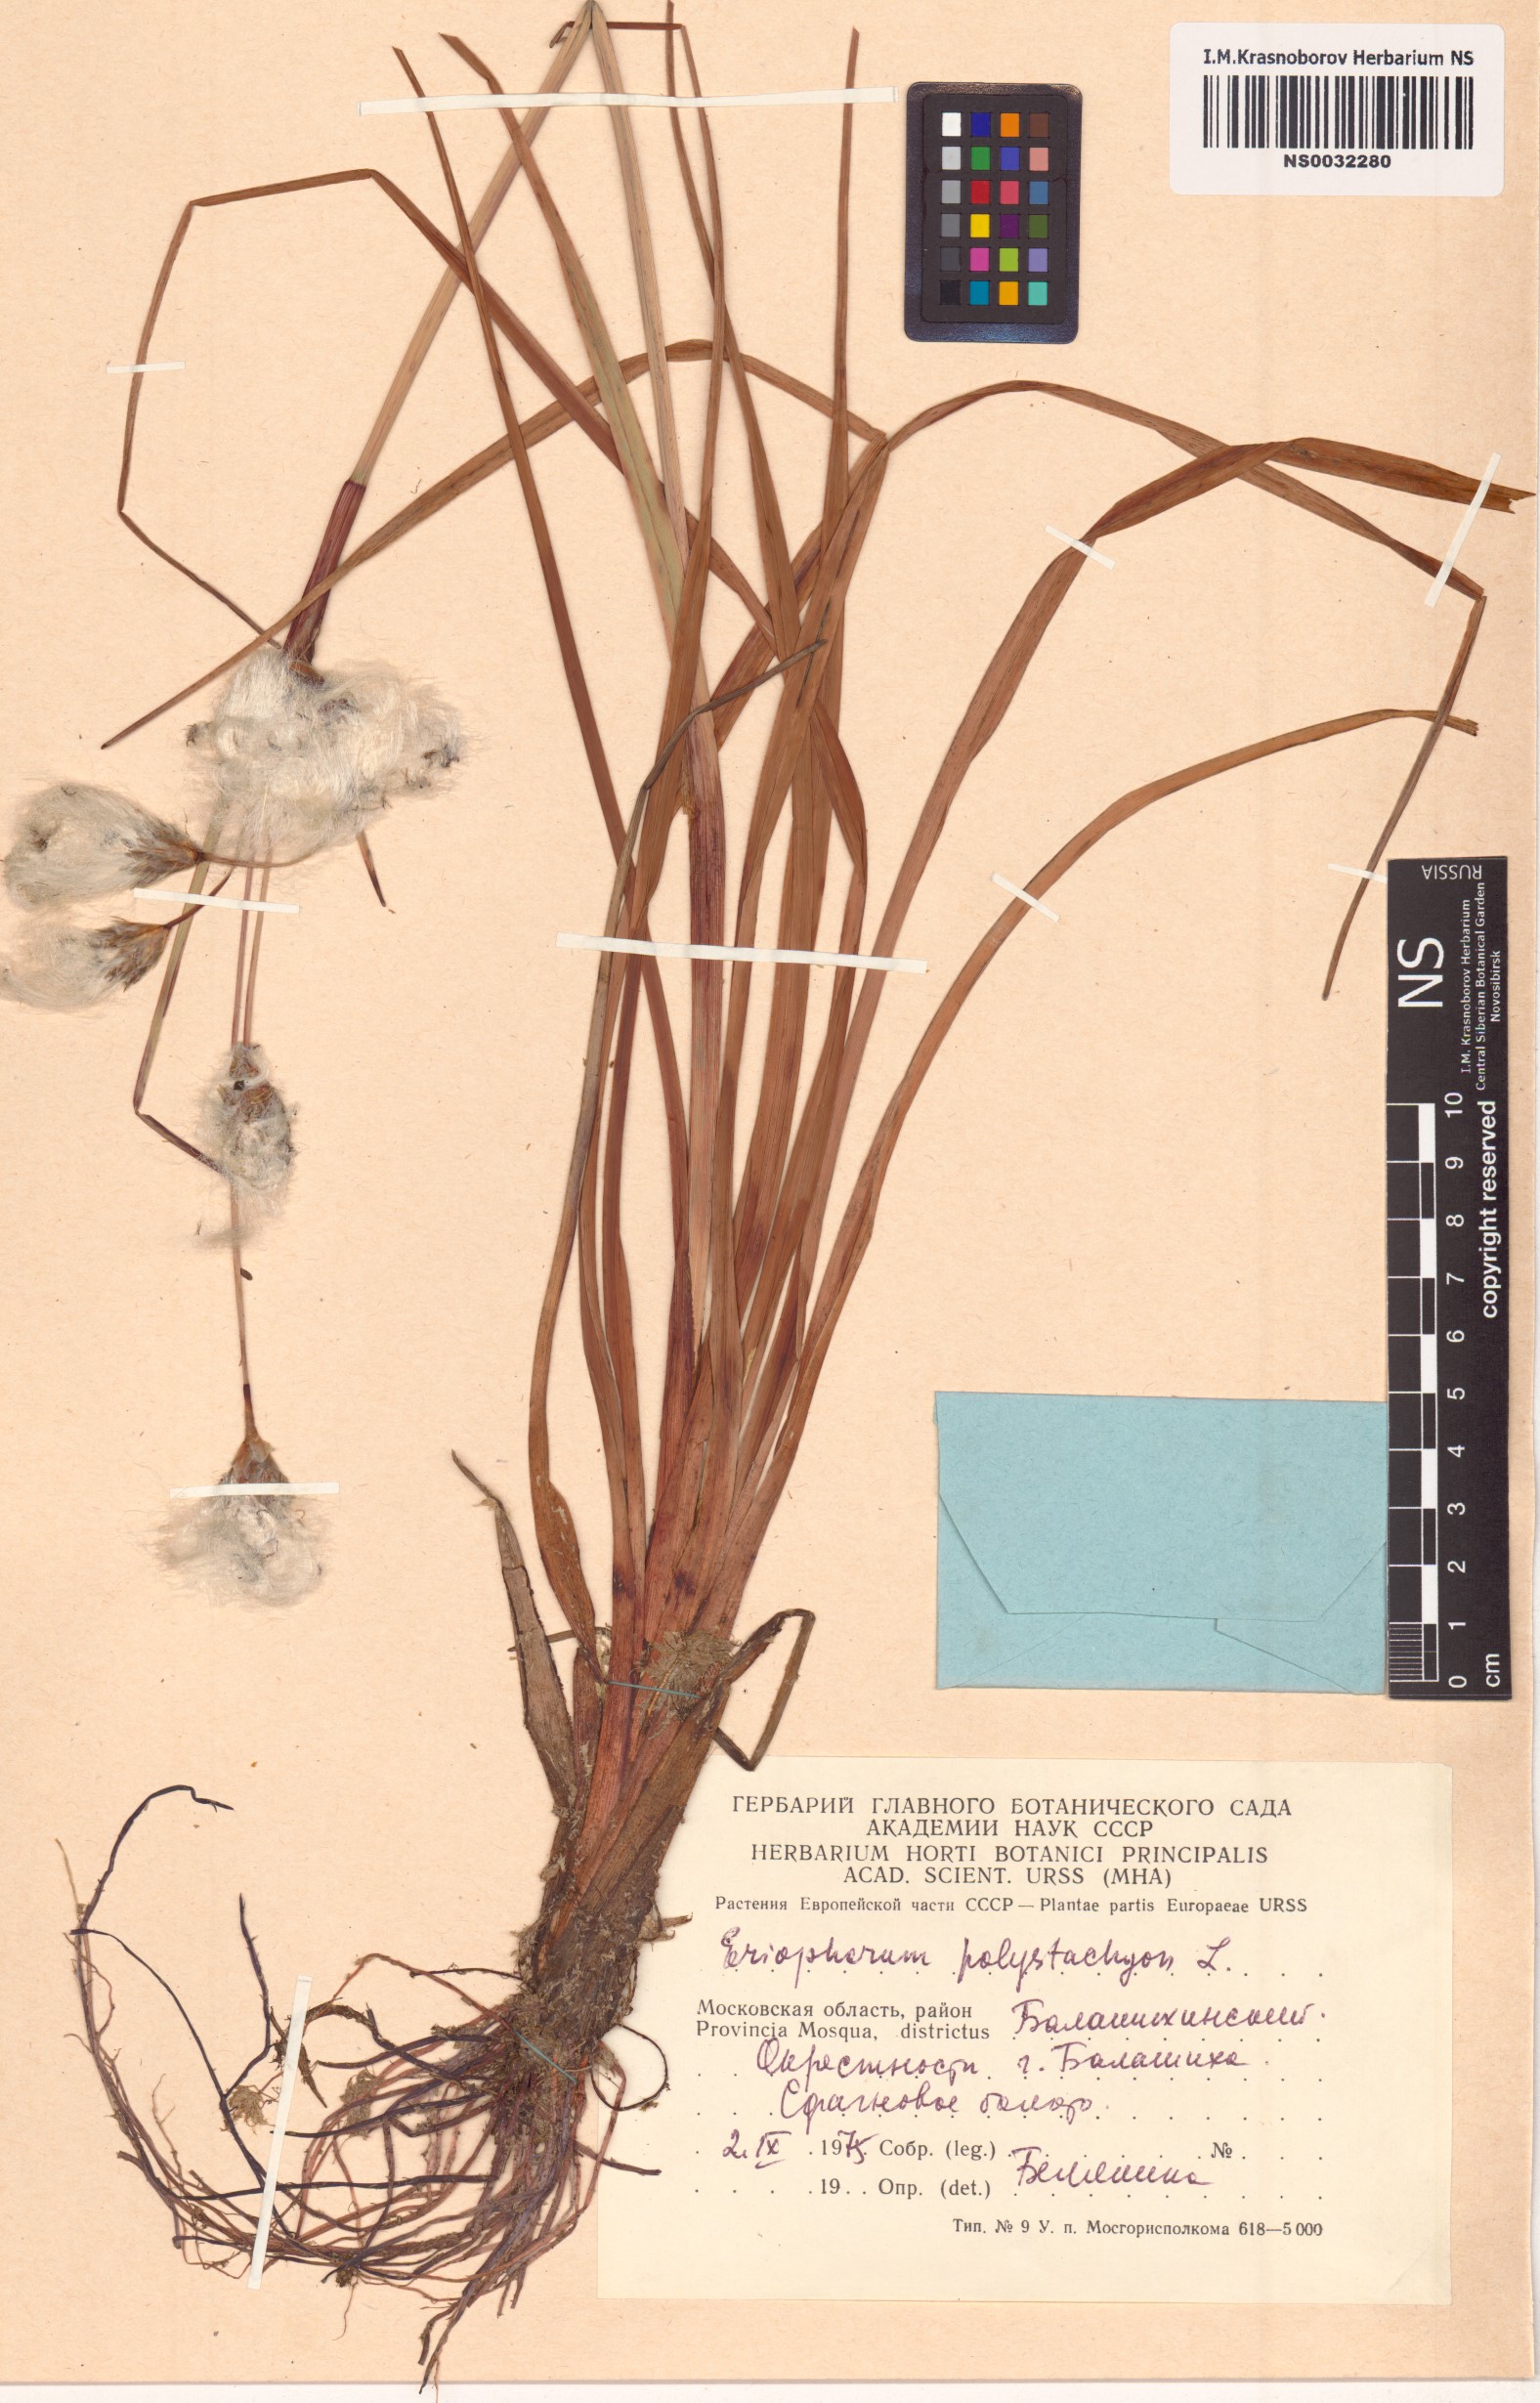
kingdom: Plantae
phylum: Tracheophyta
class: Liliopsida
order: Poales
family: Cyperaceae
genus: Eriophorum
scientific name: Eriophorum angustifolium
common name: Common cottongrass
